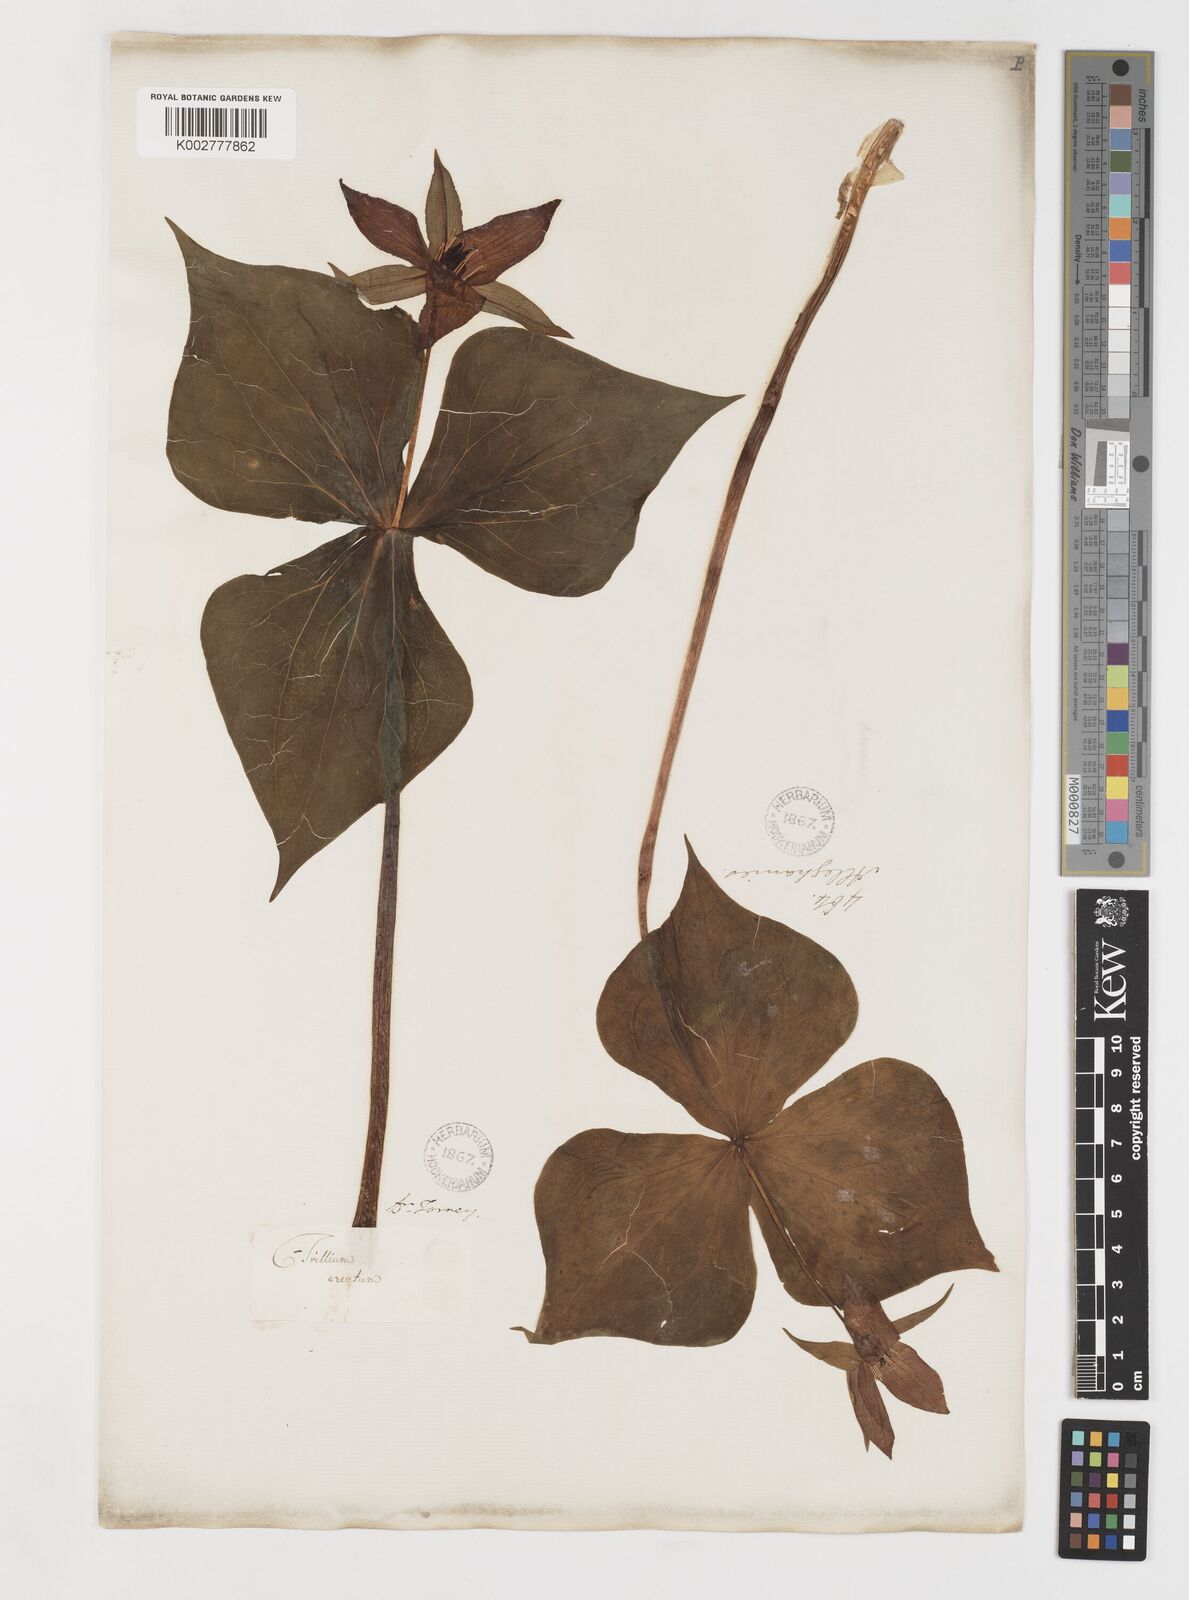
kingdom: Plantae
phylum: Tracheophyta
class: Liliopsida
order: Liliales
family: Melanthiaceae
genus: Trillium
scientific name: Trillium erectum
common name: Purple trillium
